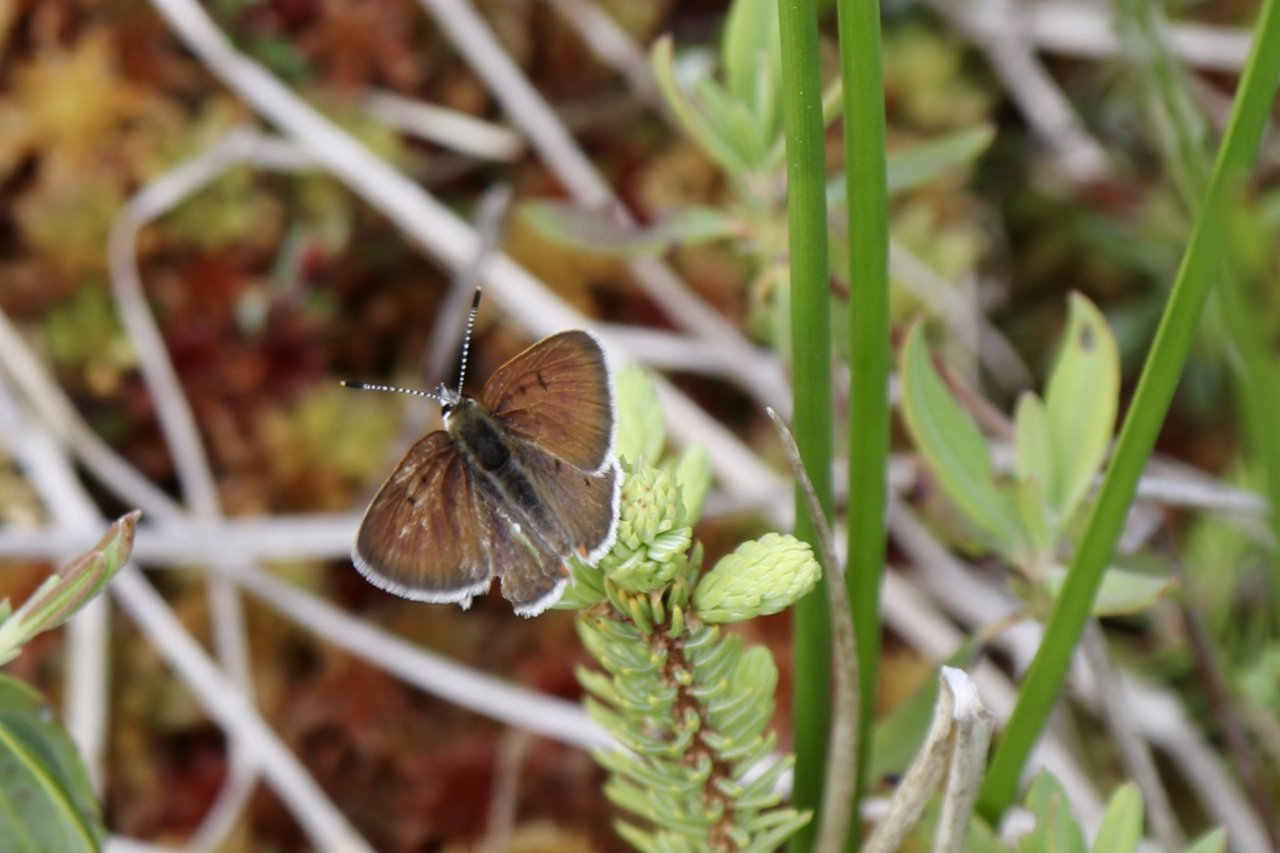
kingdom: Animalia
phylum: Arthropoda
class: Insecta
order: Lepidoptera
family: Sesiidae
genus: Sesia
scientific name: Sesia Lycaena epixanthe
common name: Bog Copper
